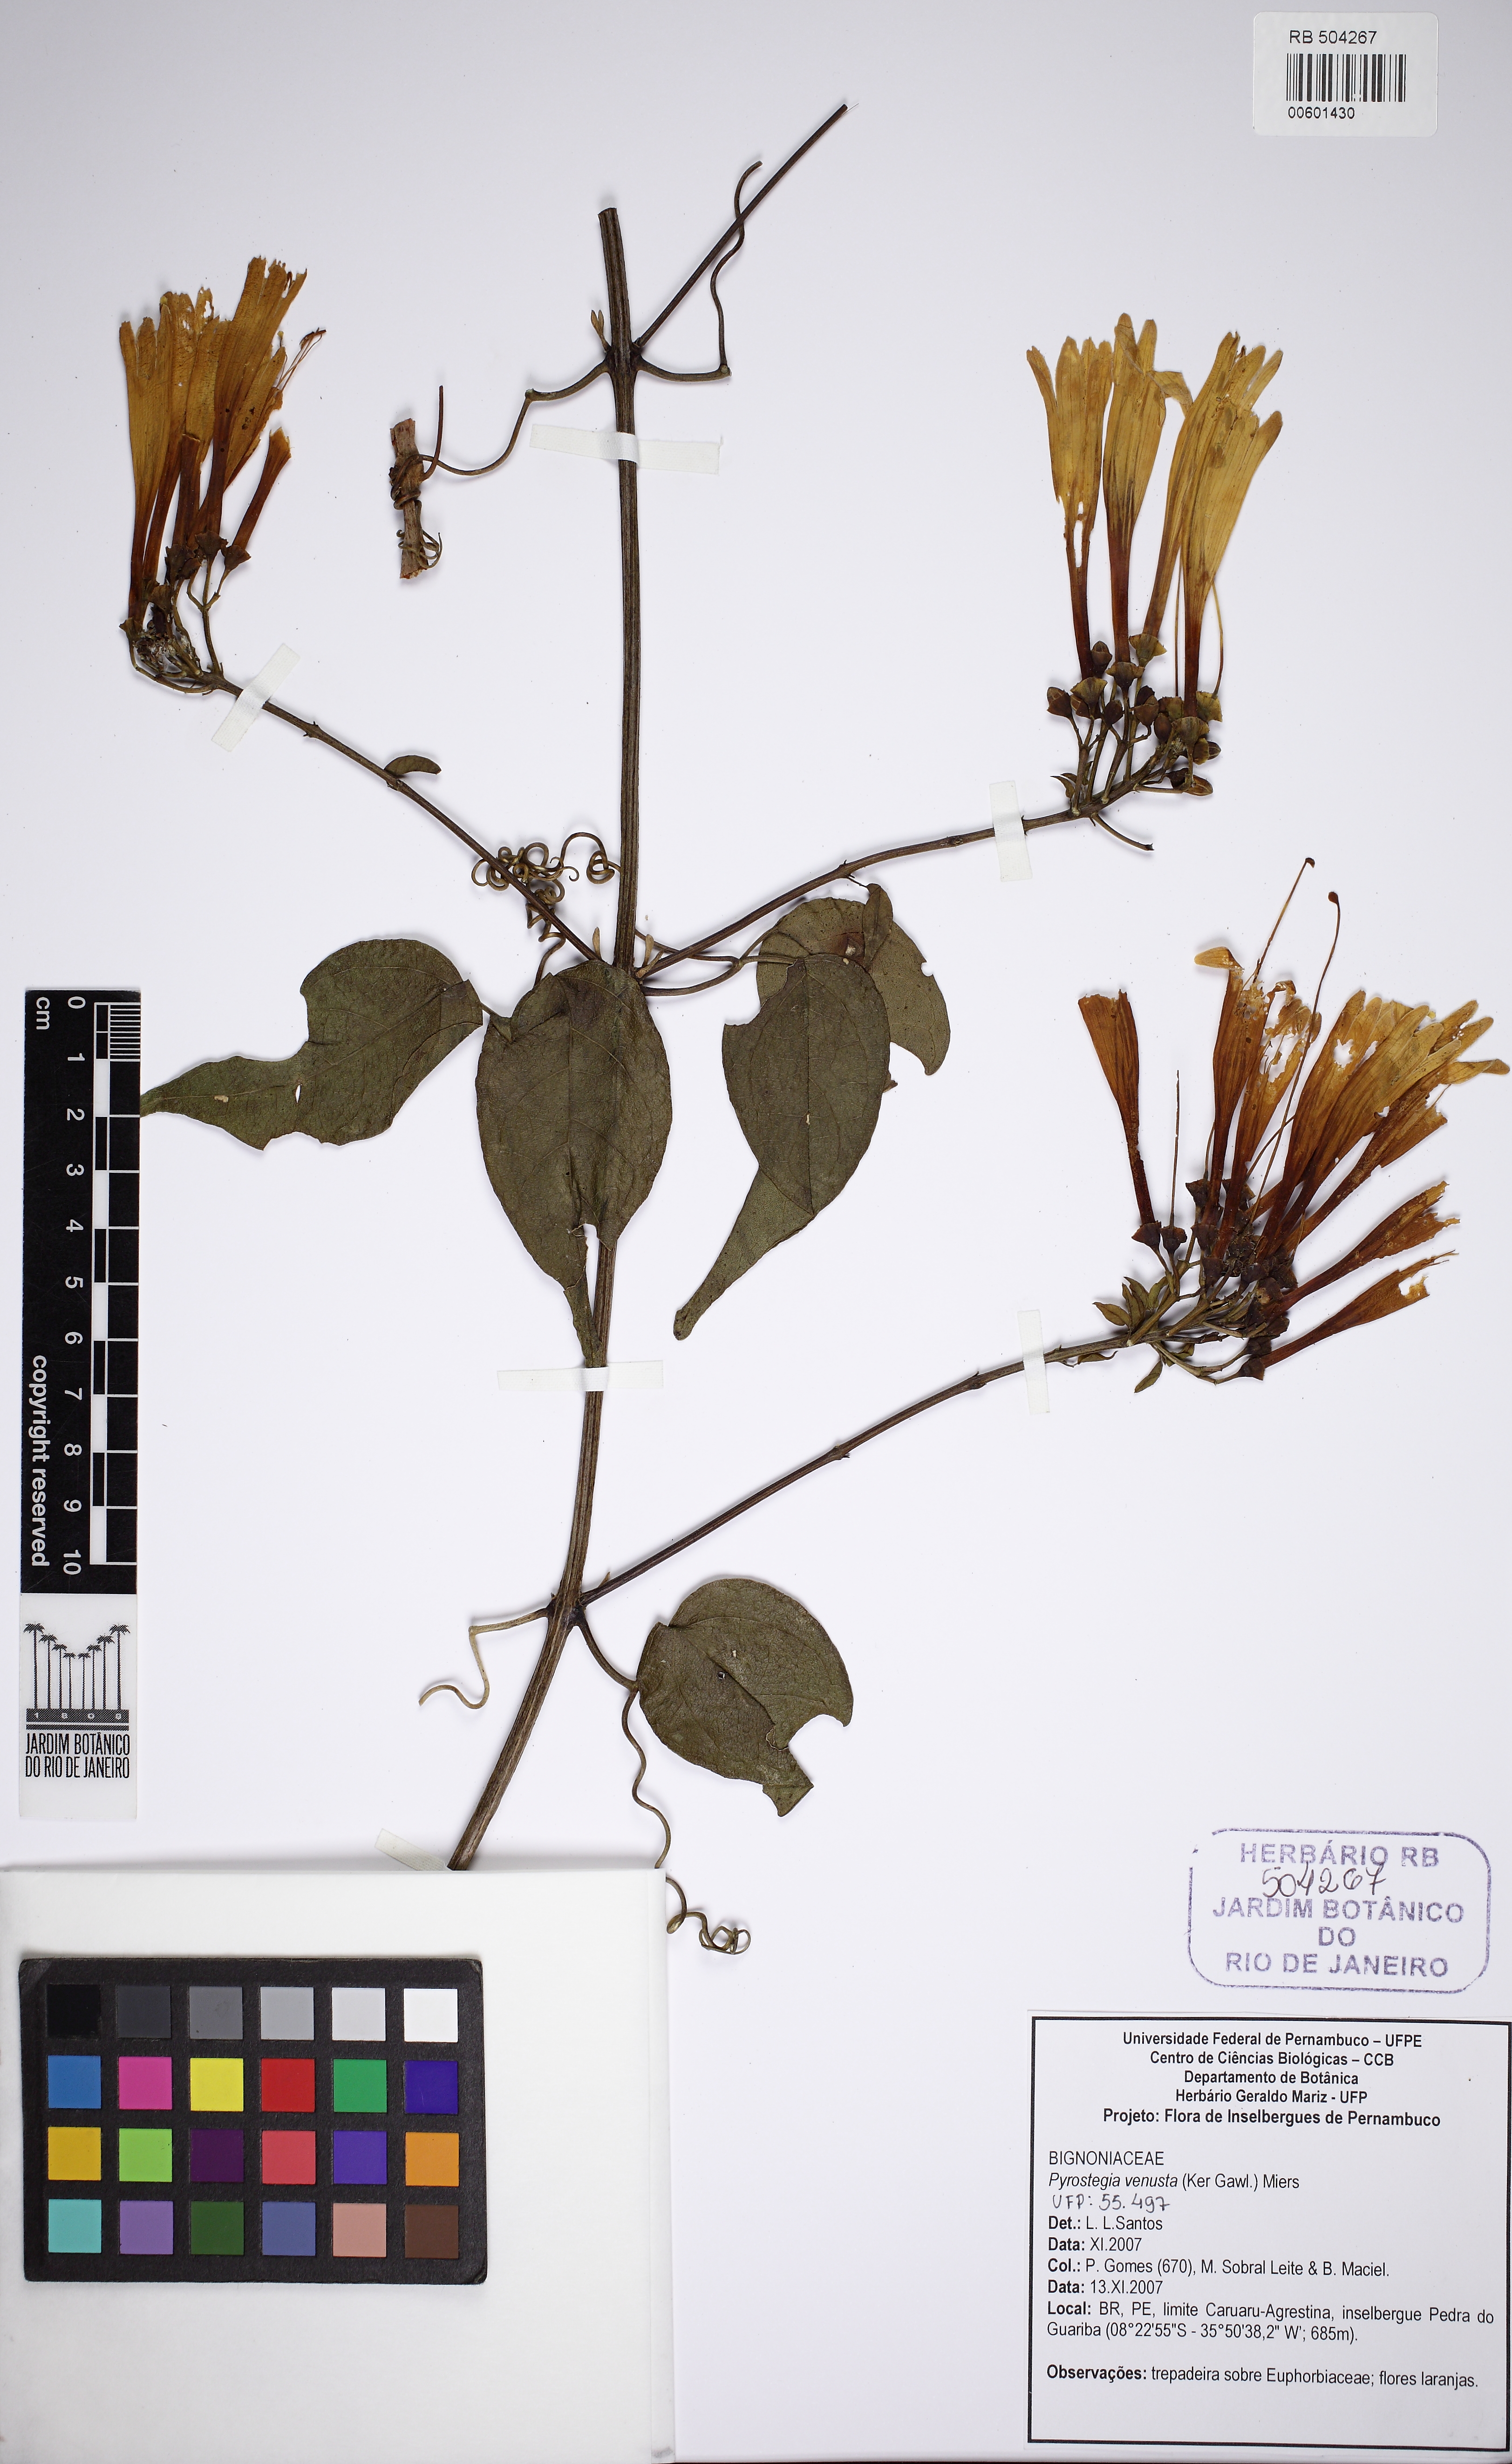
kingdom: Plantae
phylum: Tracheophyta
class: Magnoliopsida
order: Lamiales
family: Bignoniaceae
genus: Pyrostegia
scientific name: Pyrostegia venusta
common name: Flamevine
